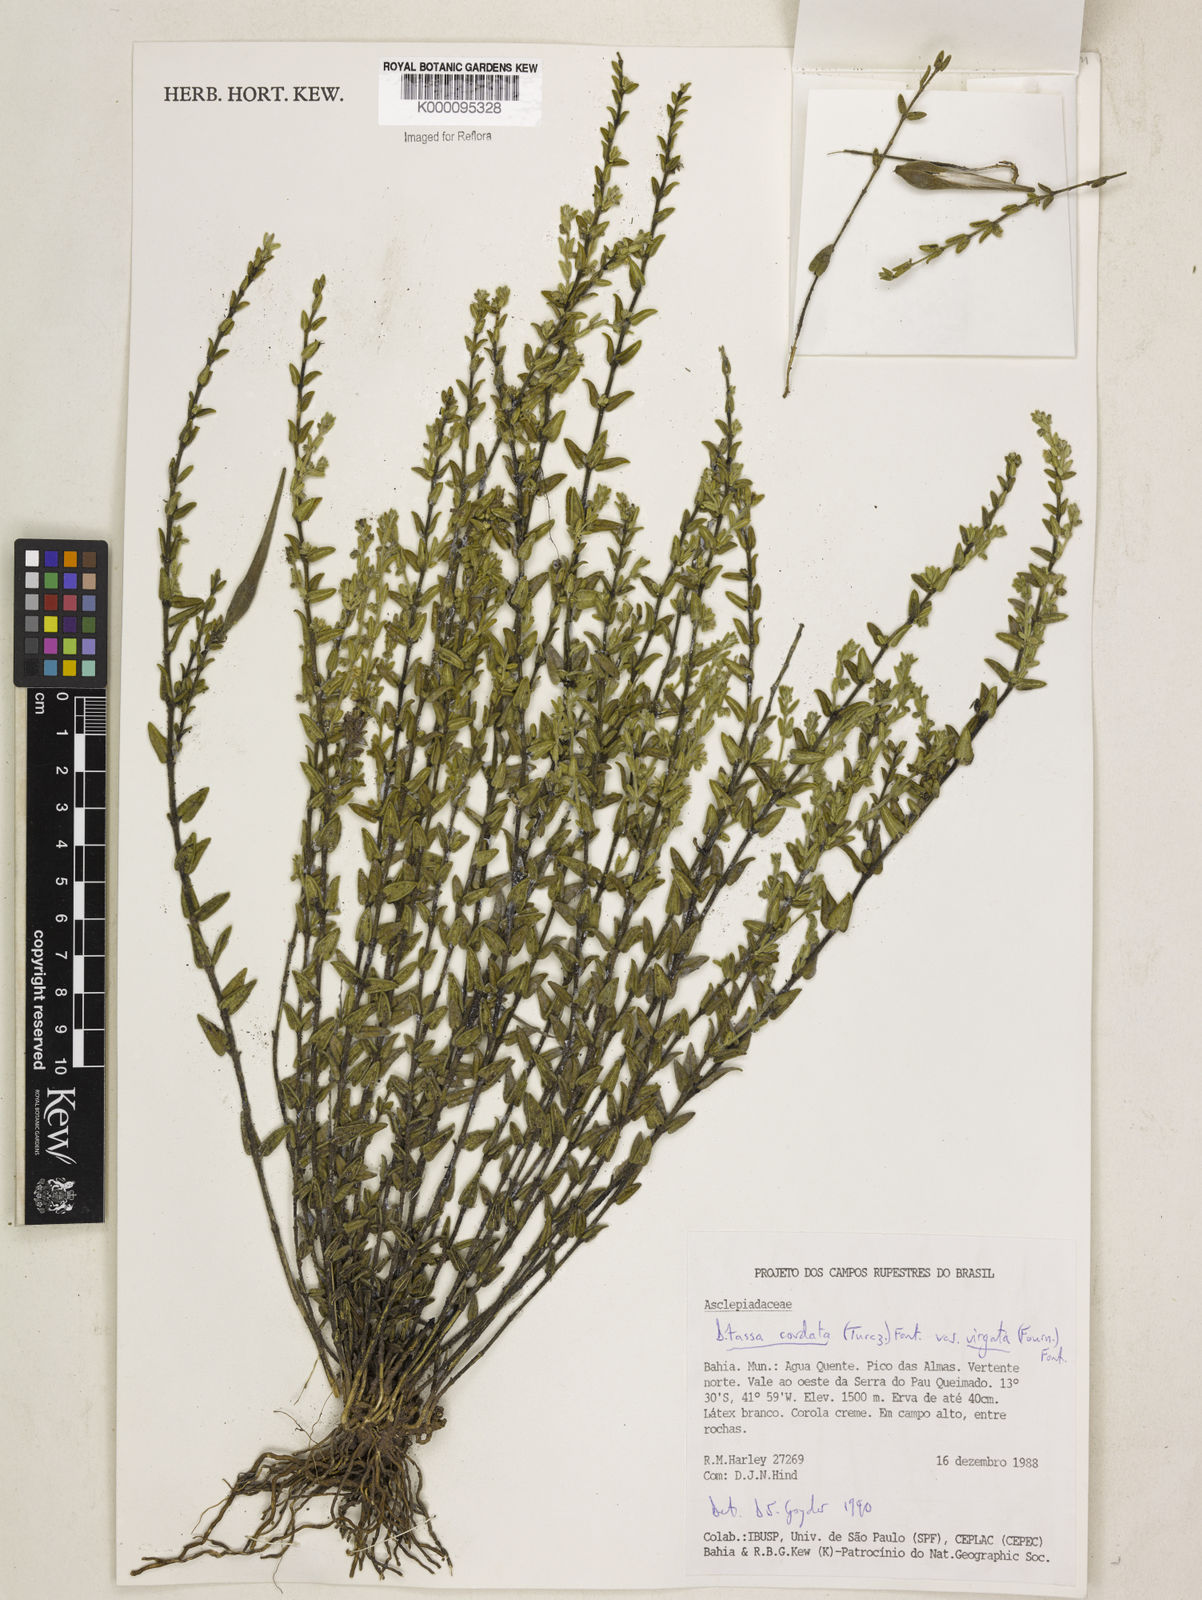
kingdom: Plantae
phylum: Tracheophyta
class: Magnoliopsida
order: Gentianales
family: Apocynaceae
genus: Minaria
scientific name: Minaria cordata
